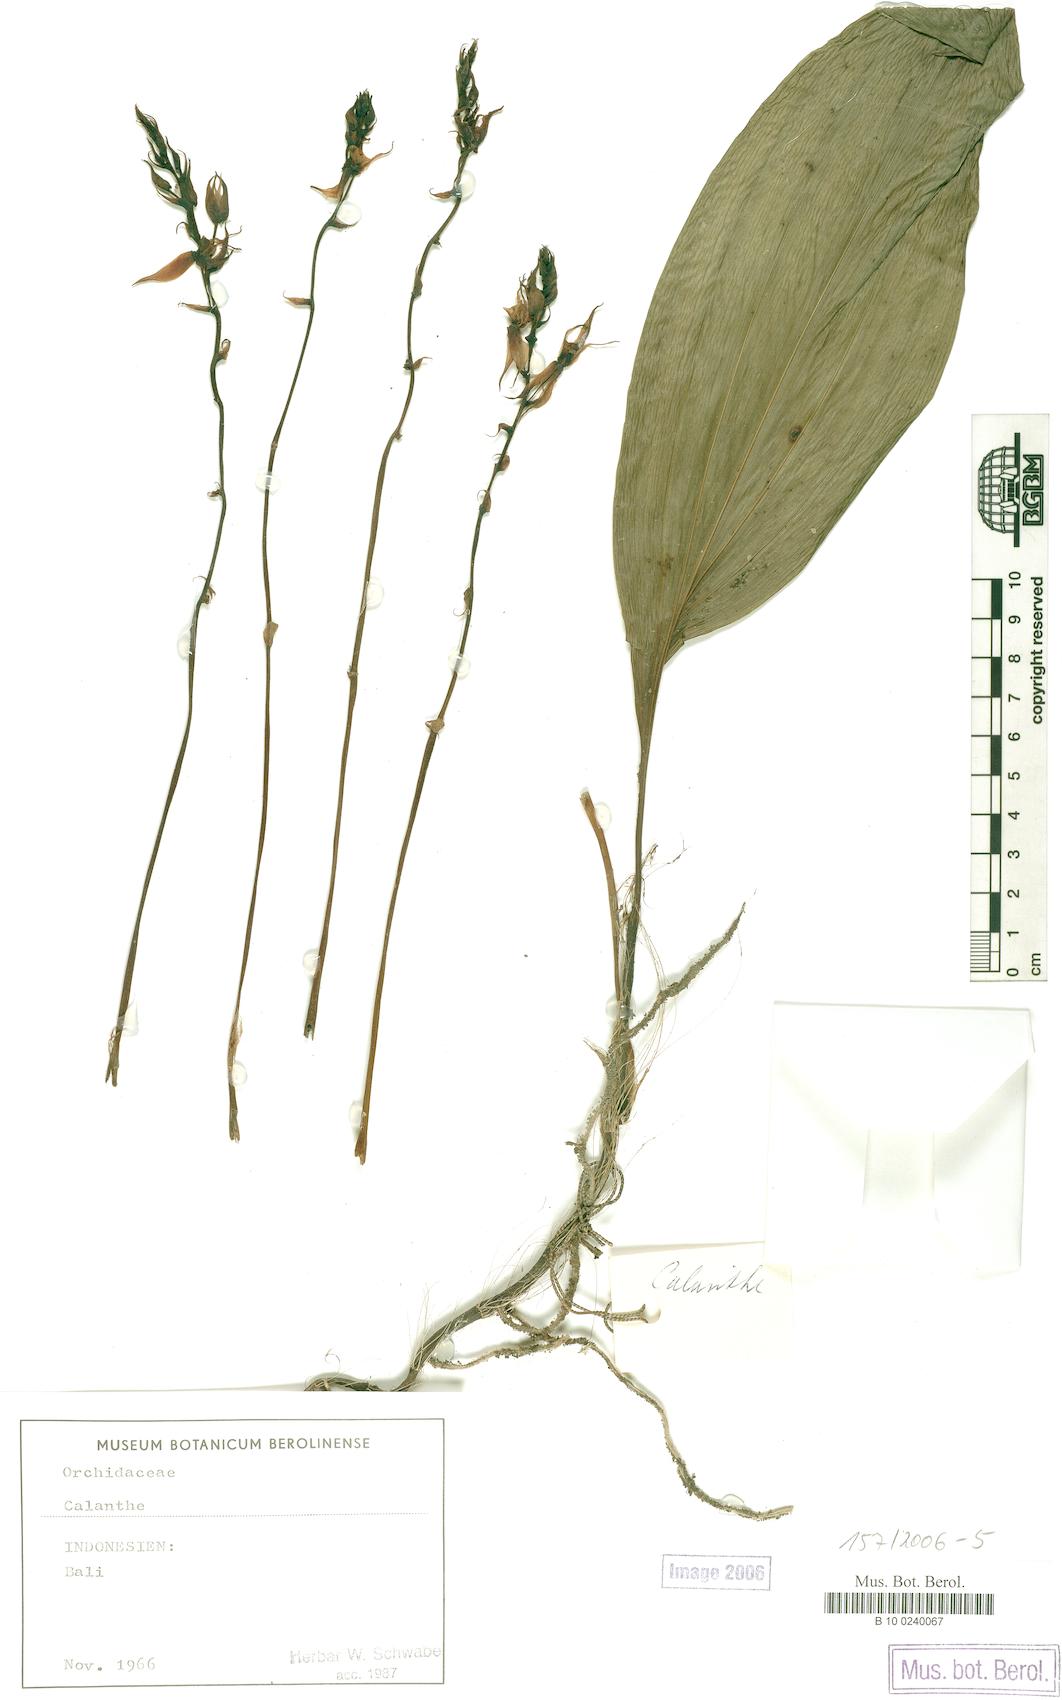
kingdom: Plantae
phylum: Tracheophyta
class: Liliopsida
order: Asparagales
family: Orchidaceae
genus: Calanthe
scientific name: Calanthe
